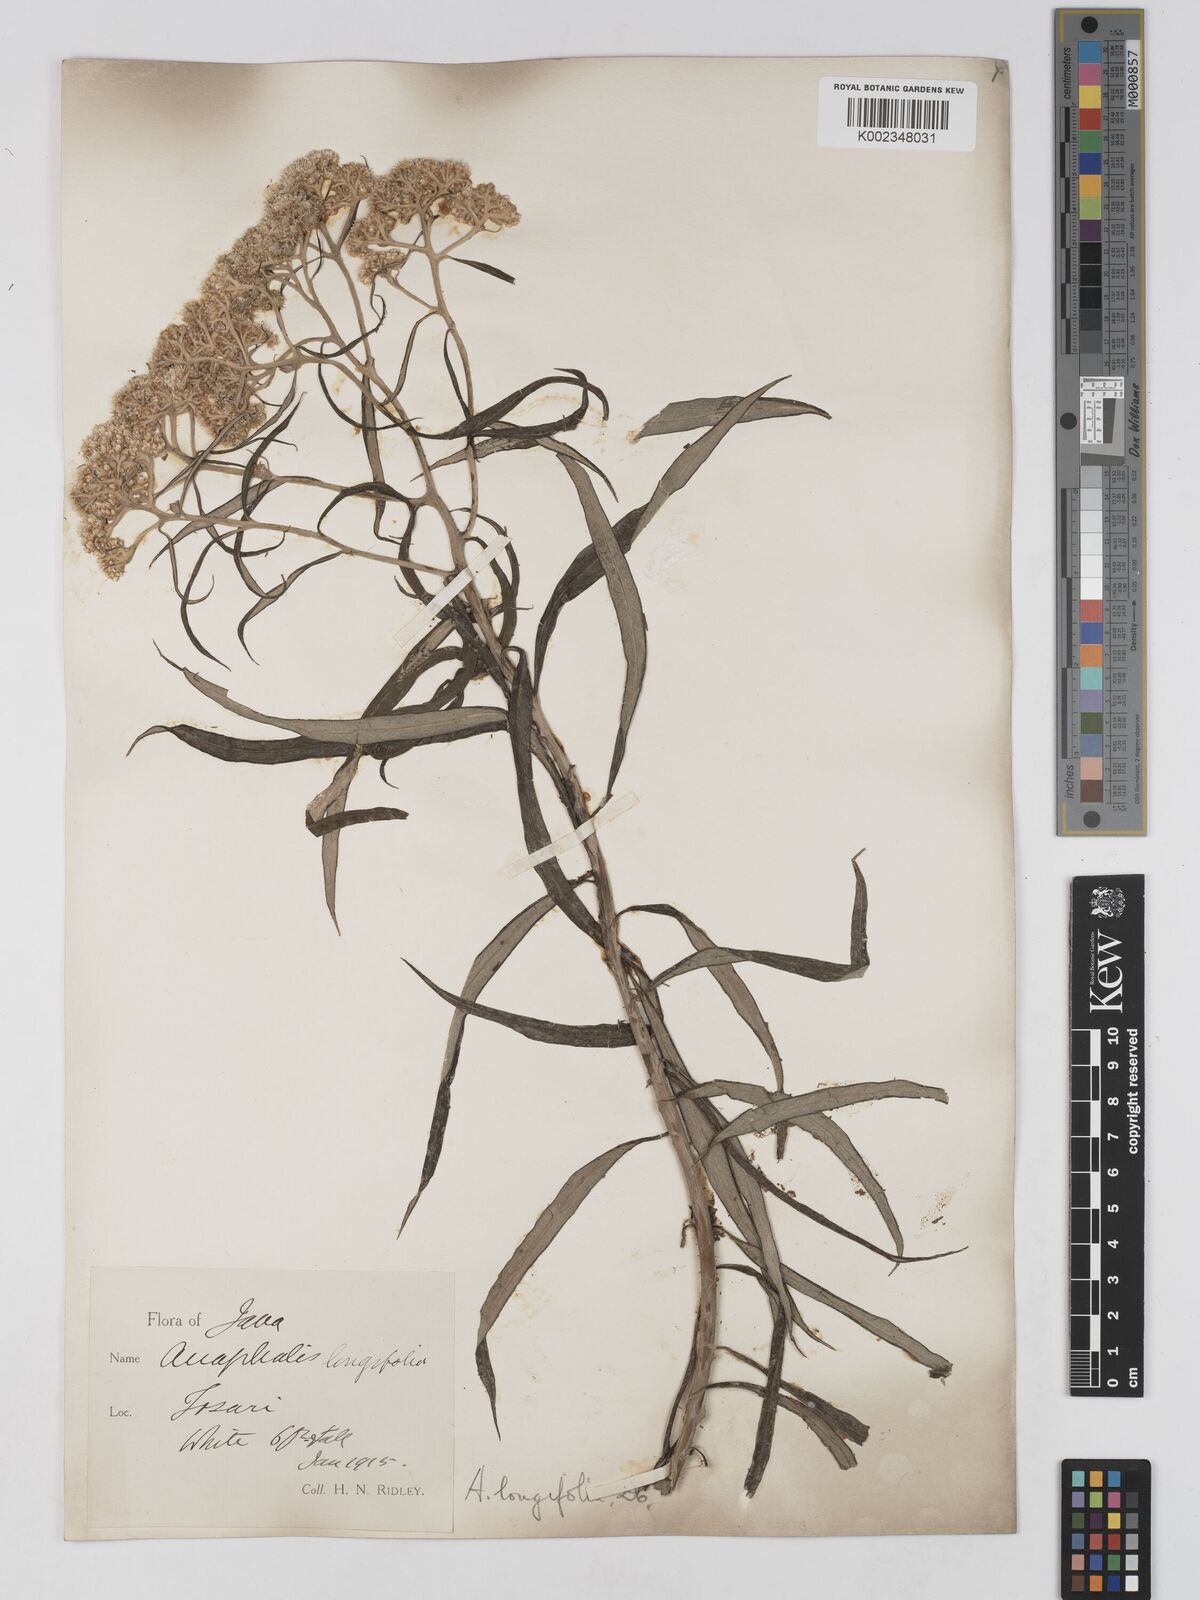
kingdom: Plantae
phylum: Tracheophyta
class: Magnoliopsida
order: Asterales
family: Asteraceae
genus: Anaphalis
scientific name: Anaphalis longifolia
